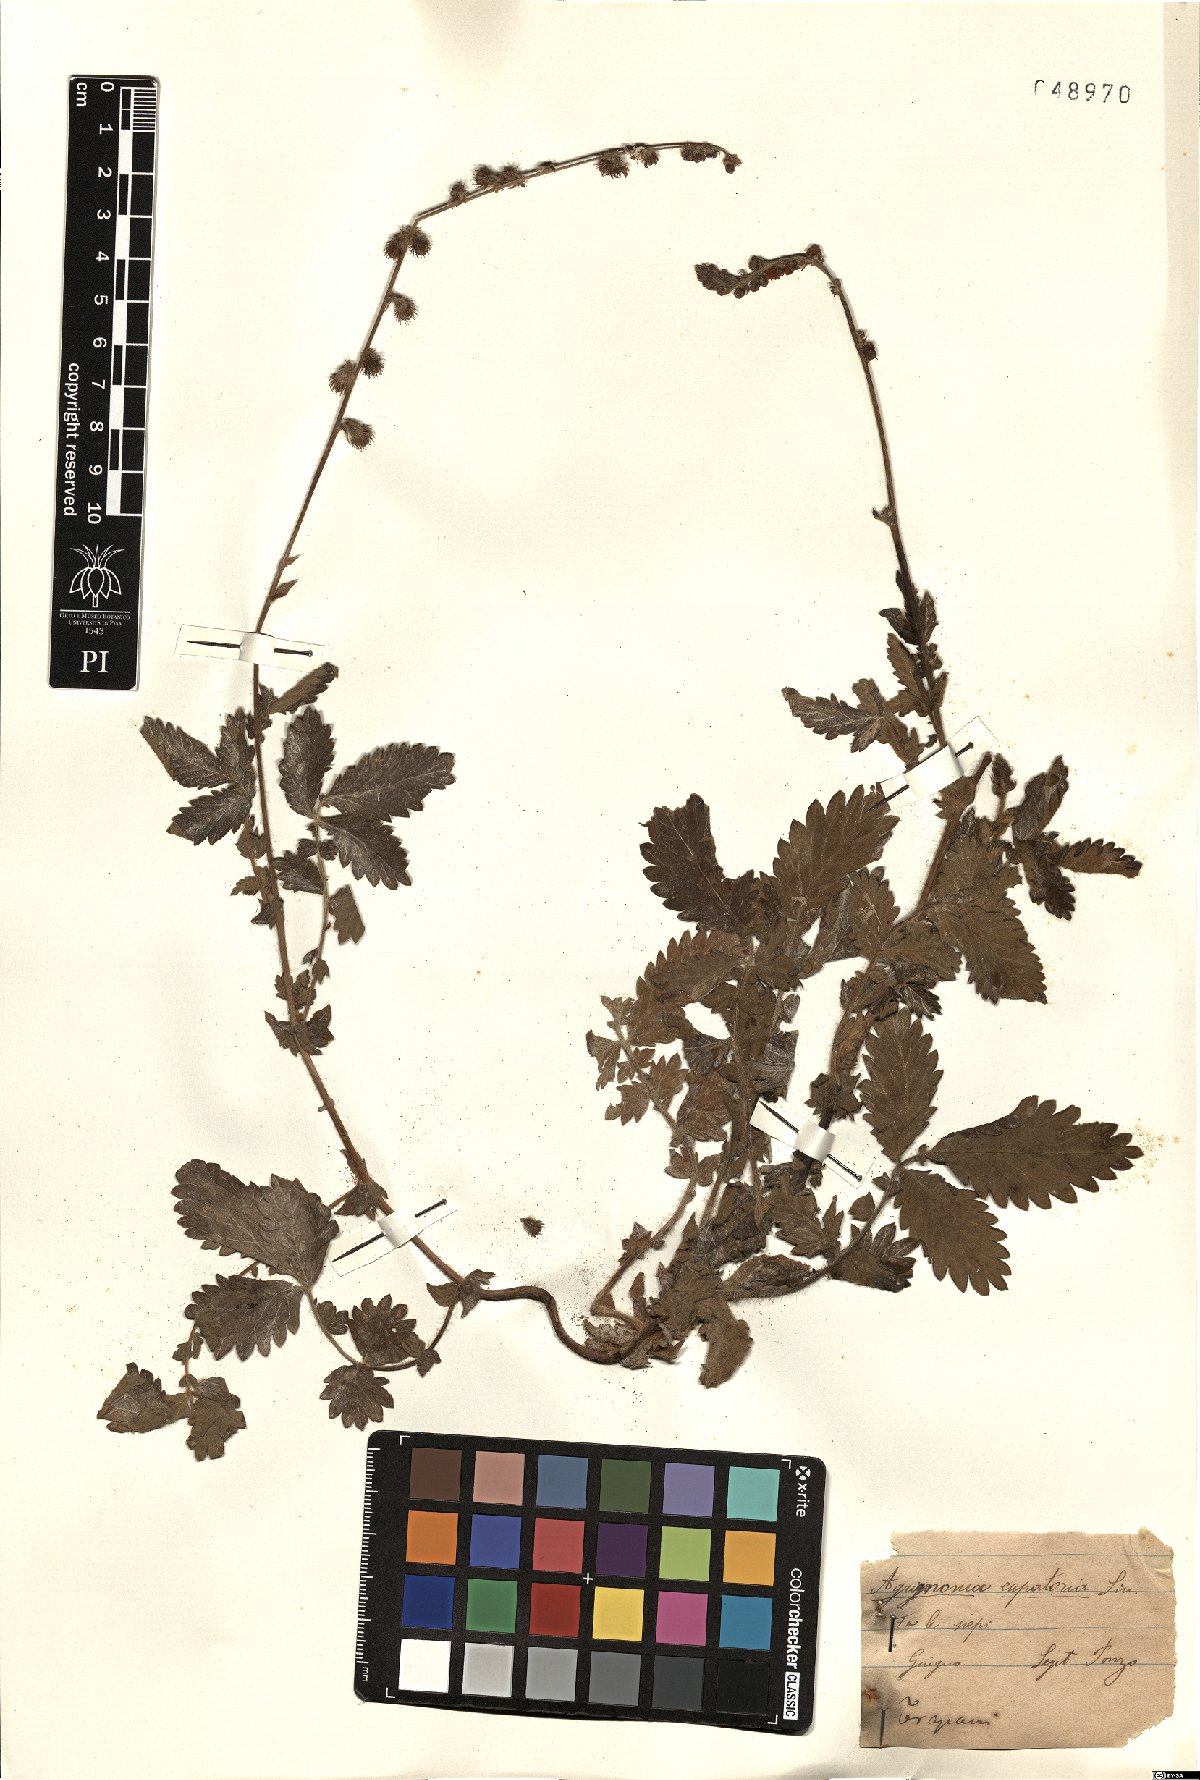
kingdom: Plantae
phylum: Tracheophyta
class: Magnoliopsida
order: Rosales
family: Rosaceae
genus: Agrimonia
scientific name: Agrimonia eupatoria
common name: Agrimony
